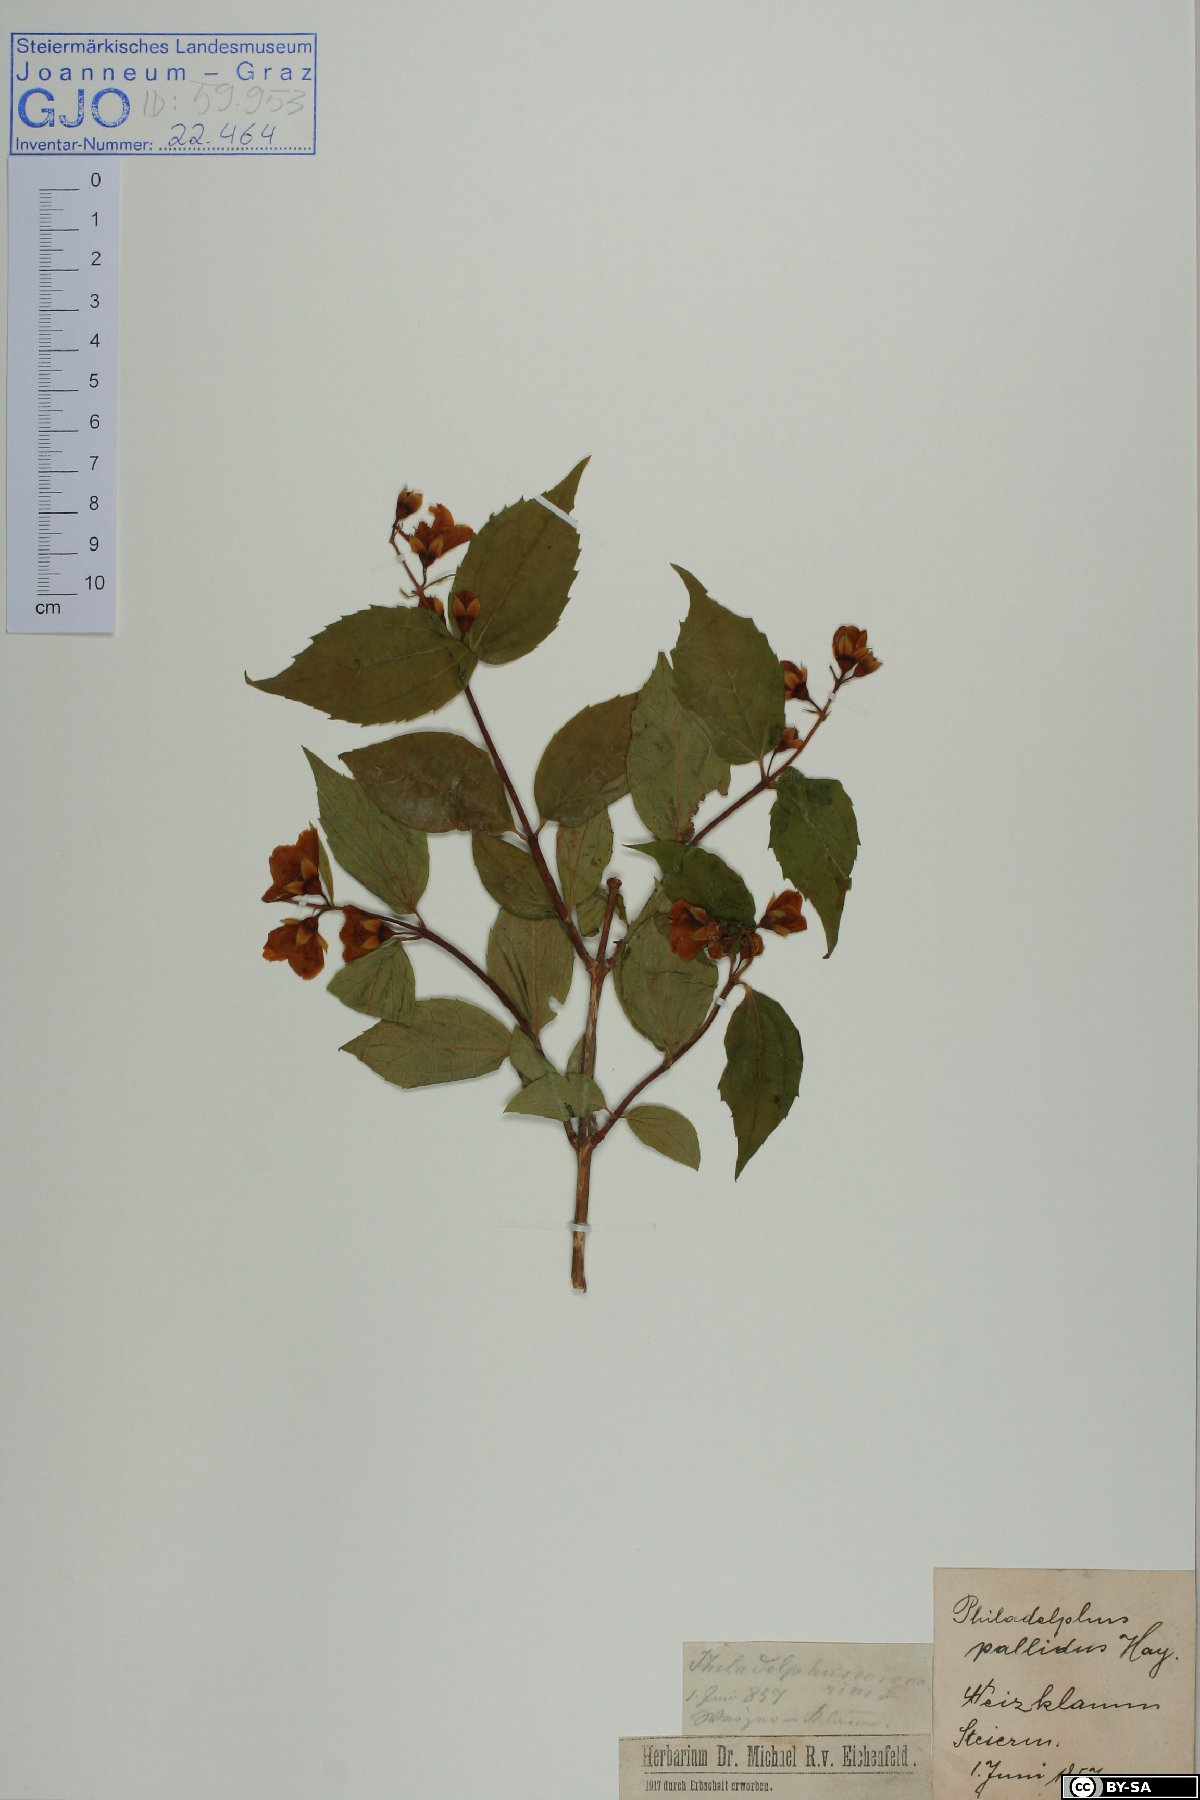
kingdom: Plantae
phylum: Tracheophyta
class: Magnoliopsida
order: Cornales
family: Hydrangeaceae
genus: Philadelphus
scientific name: Philadelphus coronarius
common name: Mock orange
